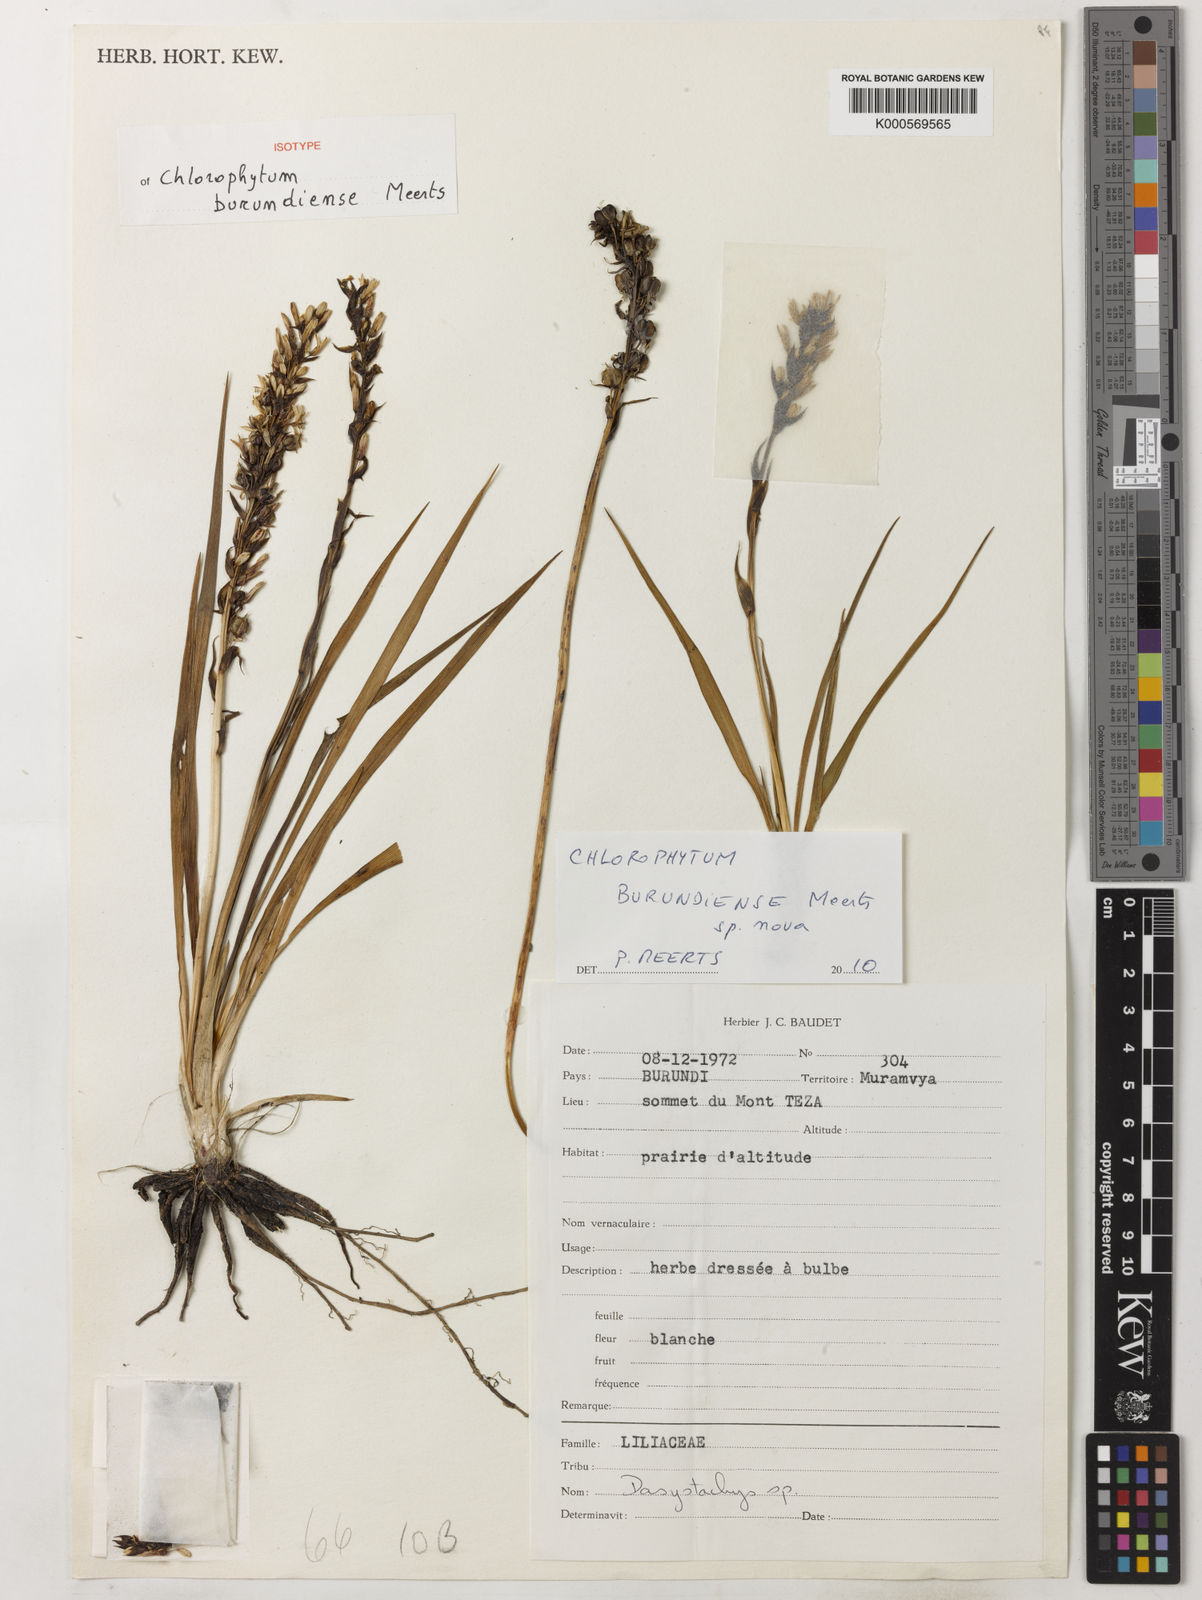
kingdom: Plantae
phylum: Tracheophyta
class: Liliopsida
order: Asparagales
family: Asparagaceae
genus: Chlorophytum
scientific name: Chlorophytum burundiense
